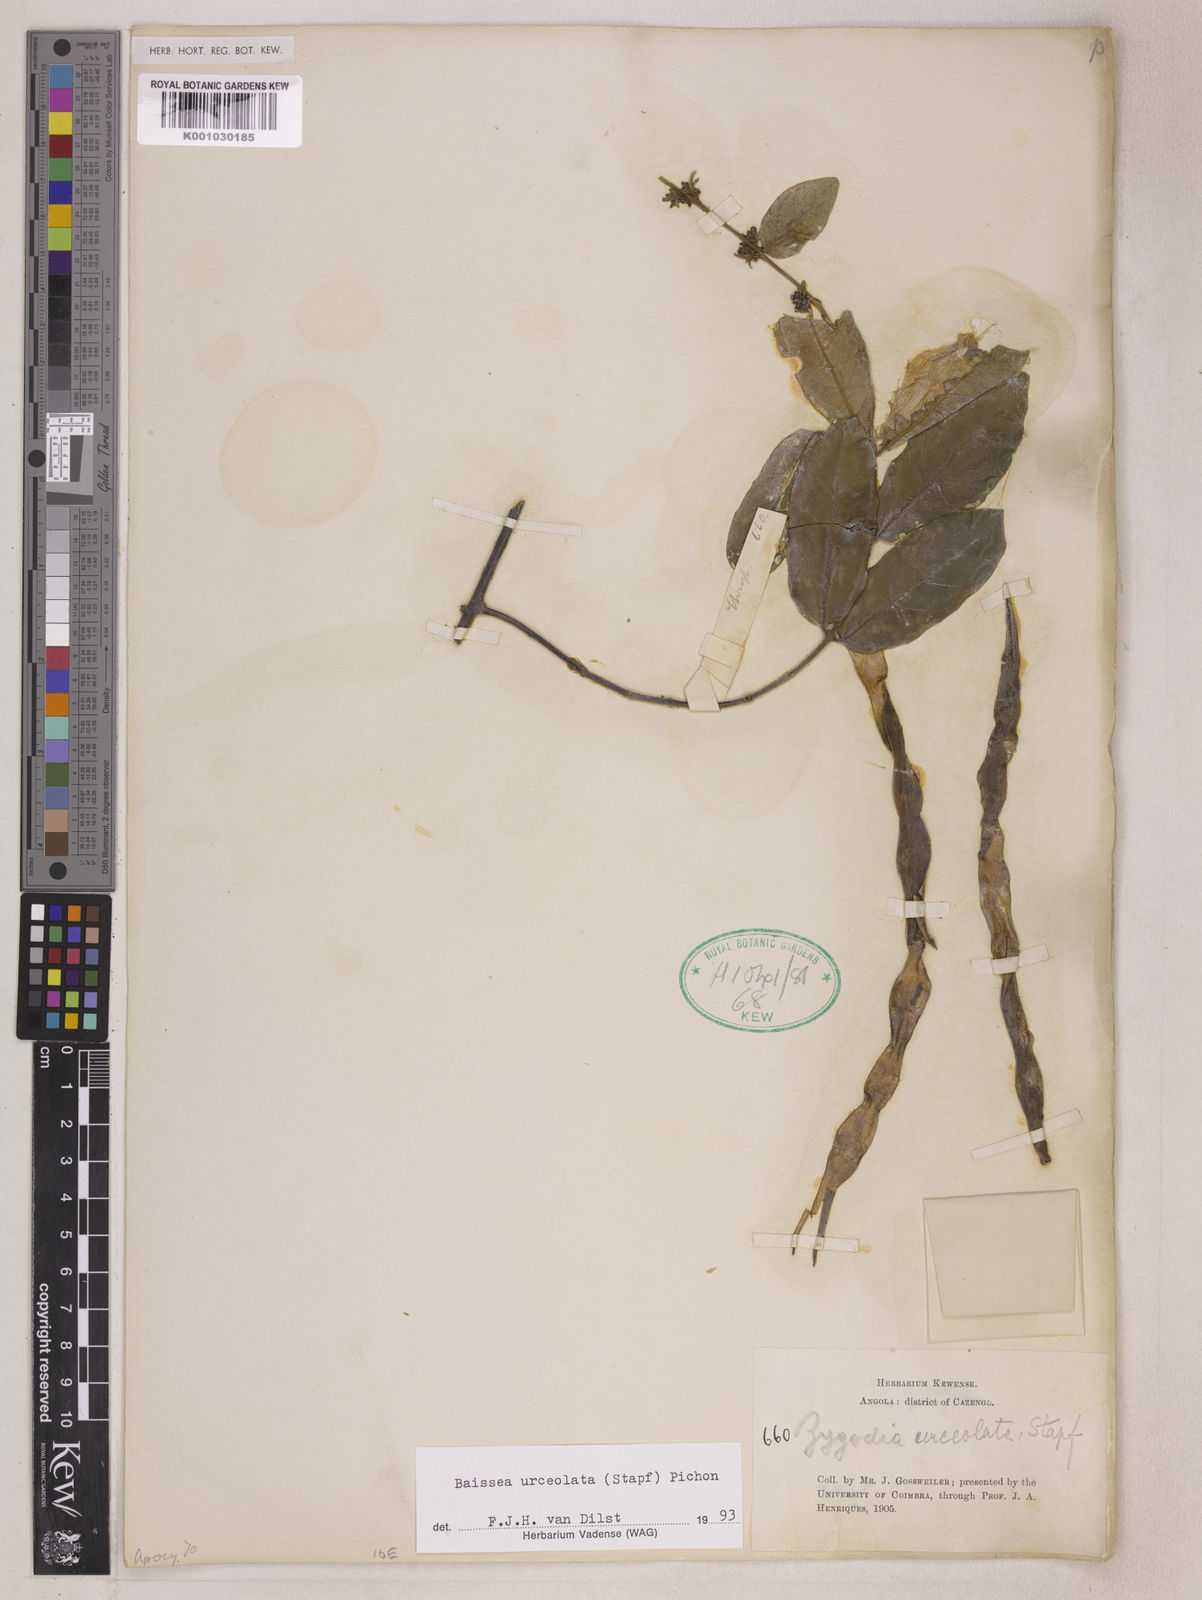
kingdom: Plantae
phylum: Tracheophyta
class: Magnoliopsida
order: Gentianales
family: Apocynaceae
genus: Baissea
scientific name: Baissea myrtifolia
